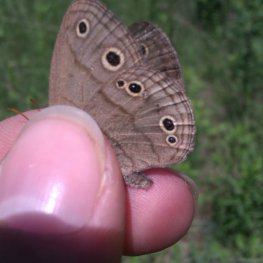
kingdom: Animalia
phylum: Arthropoda
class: Insecta
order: Lepidoptera
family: Nymphalidae
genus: Euptychia
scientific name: Euptychia cymela
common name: Little Wood Satyr
